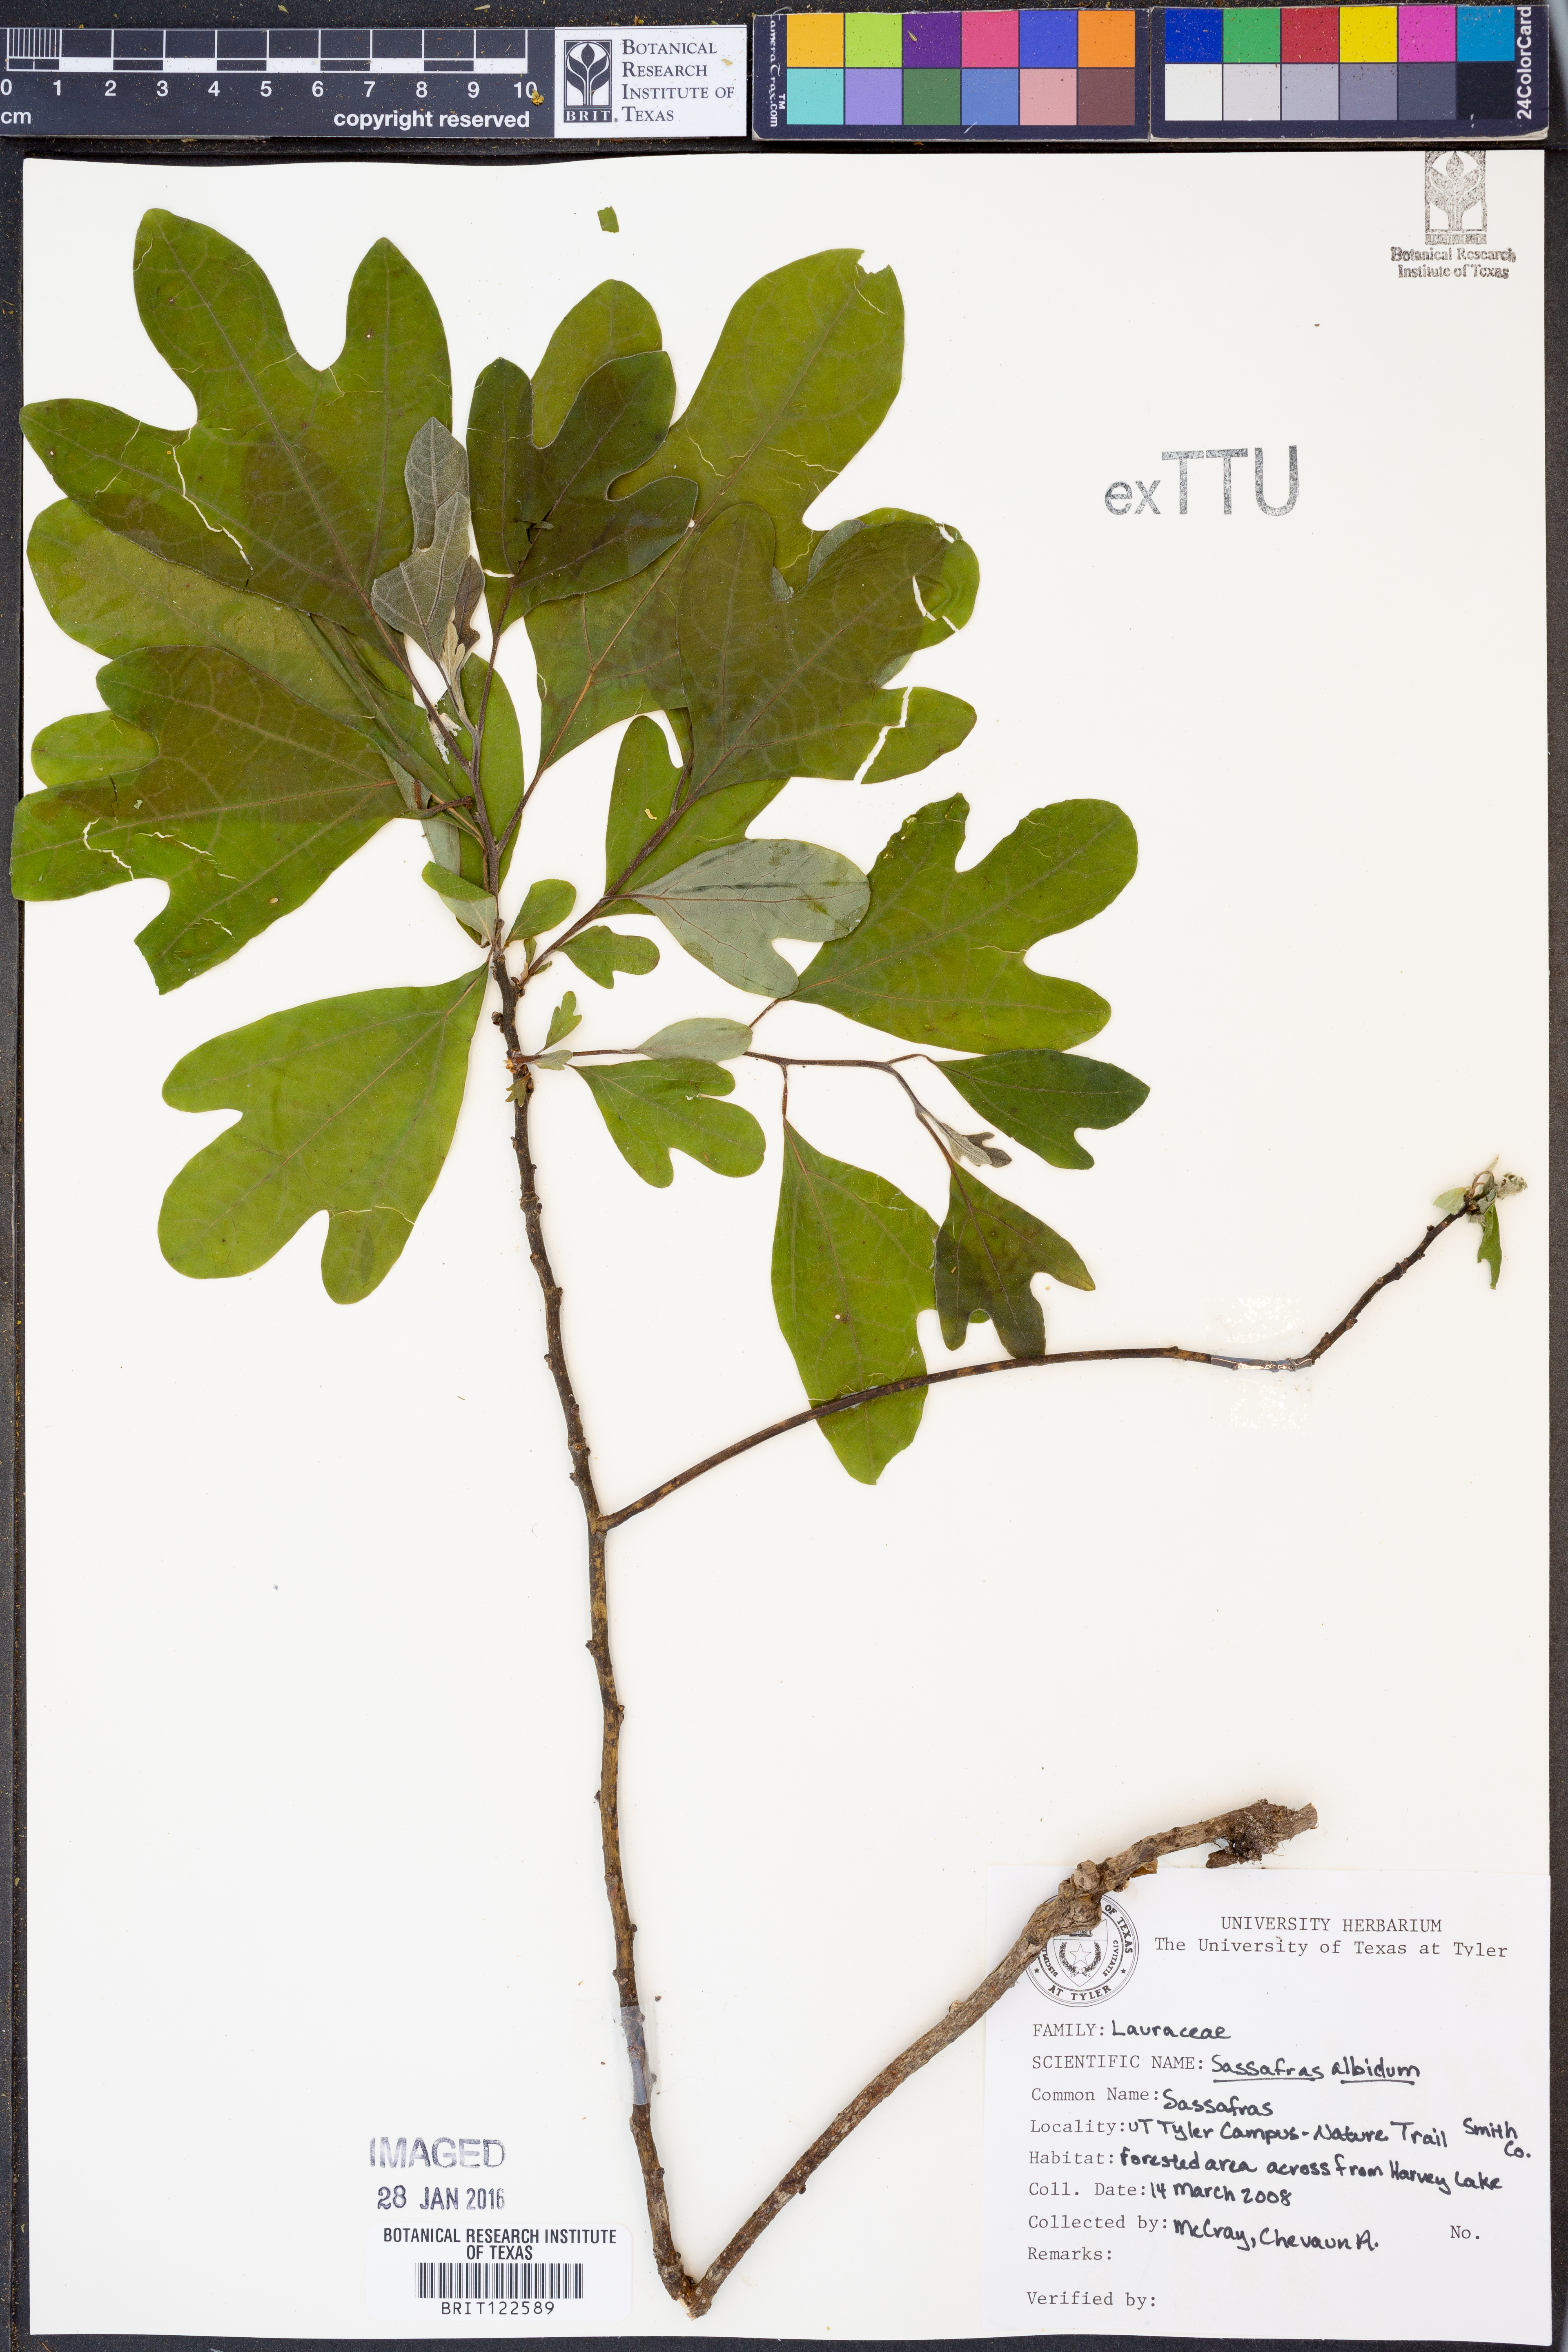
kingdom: Plantae
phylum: Tracheophyta
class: Magnoliopsida
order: Laurales
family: Lauraceae
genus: Sassafras
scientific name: Sassafras albidum
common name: Sassafras
